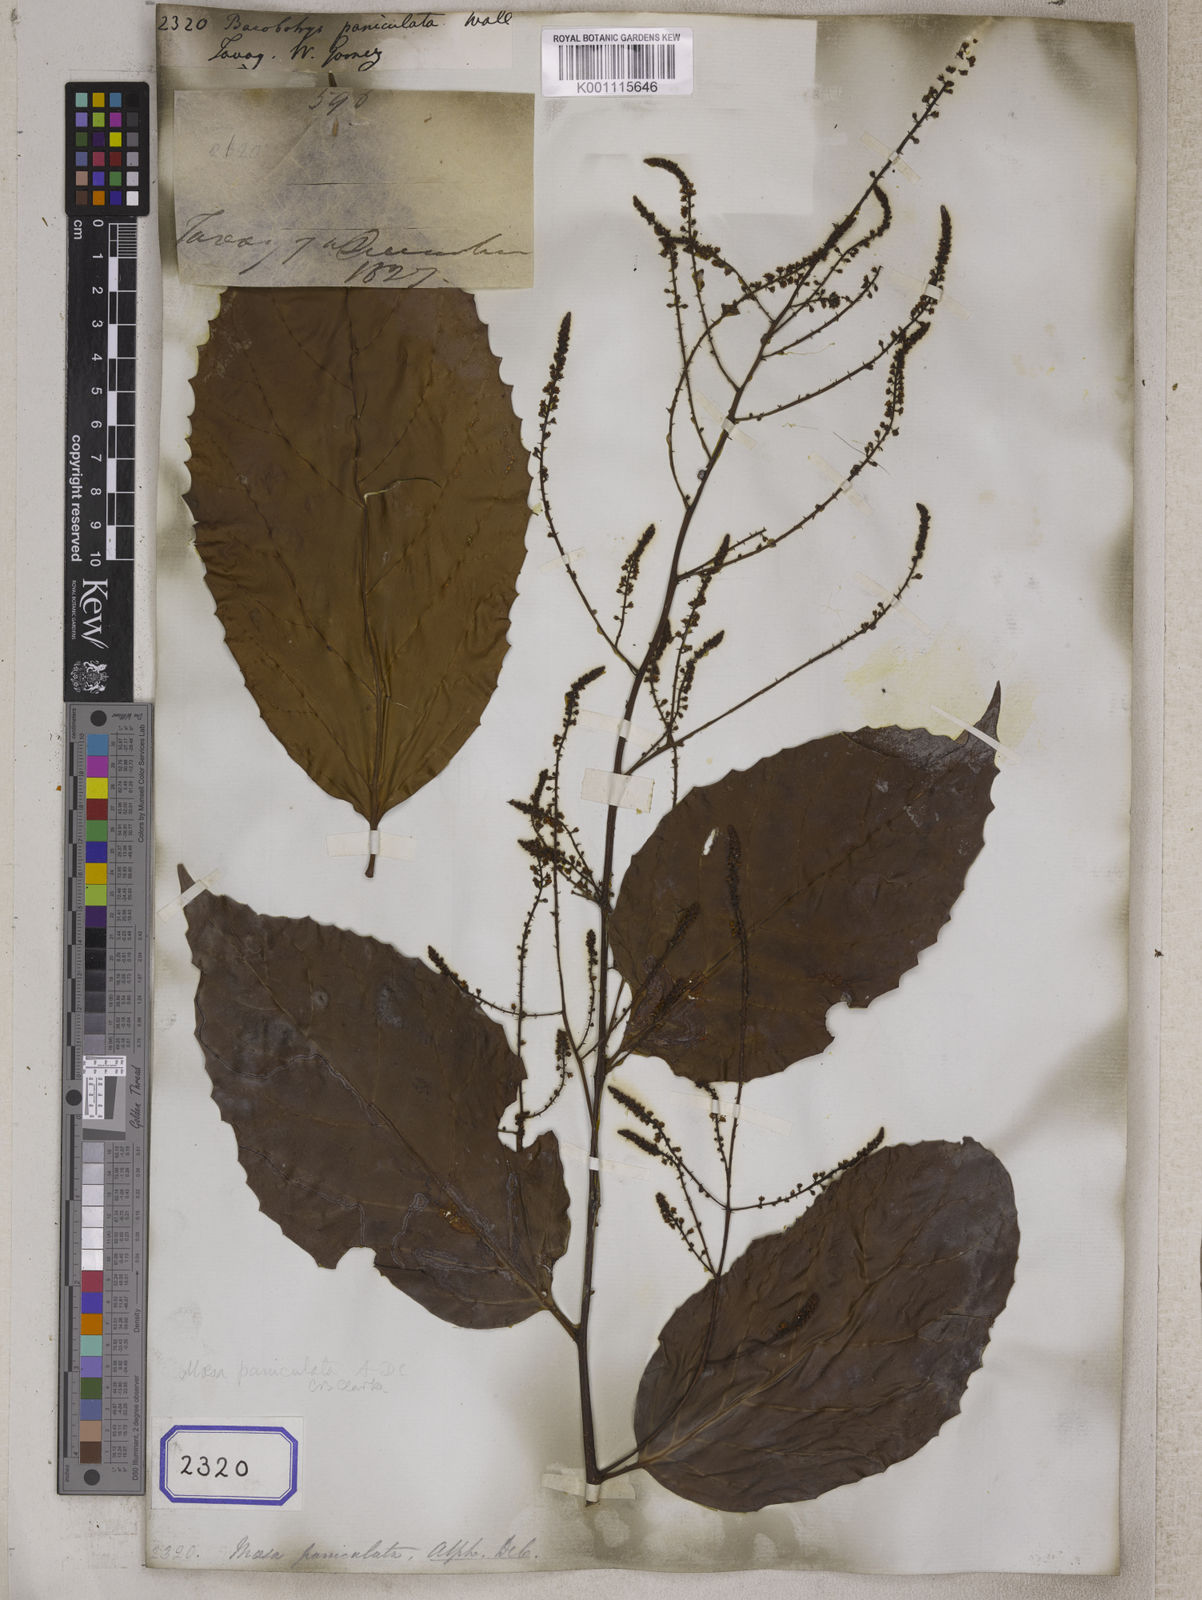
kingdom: Plantae
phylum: Tracheophyta
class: Magnoliopsida
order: Ericales
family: Primulaceae
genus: Maesa
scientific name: Maesa
